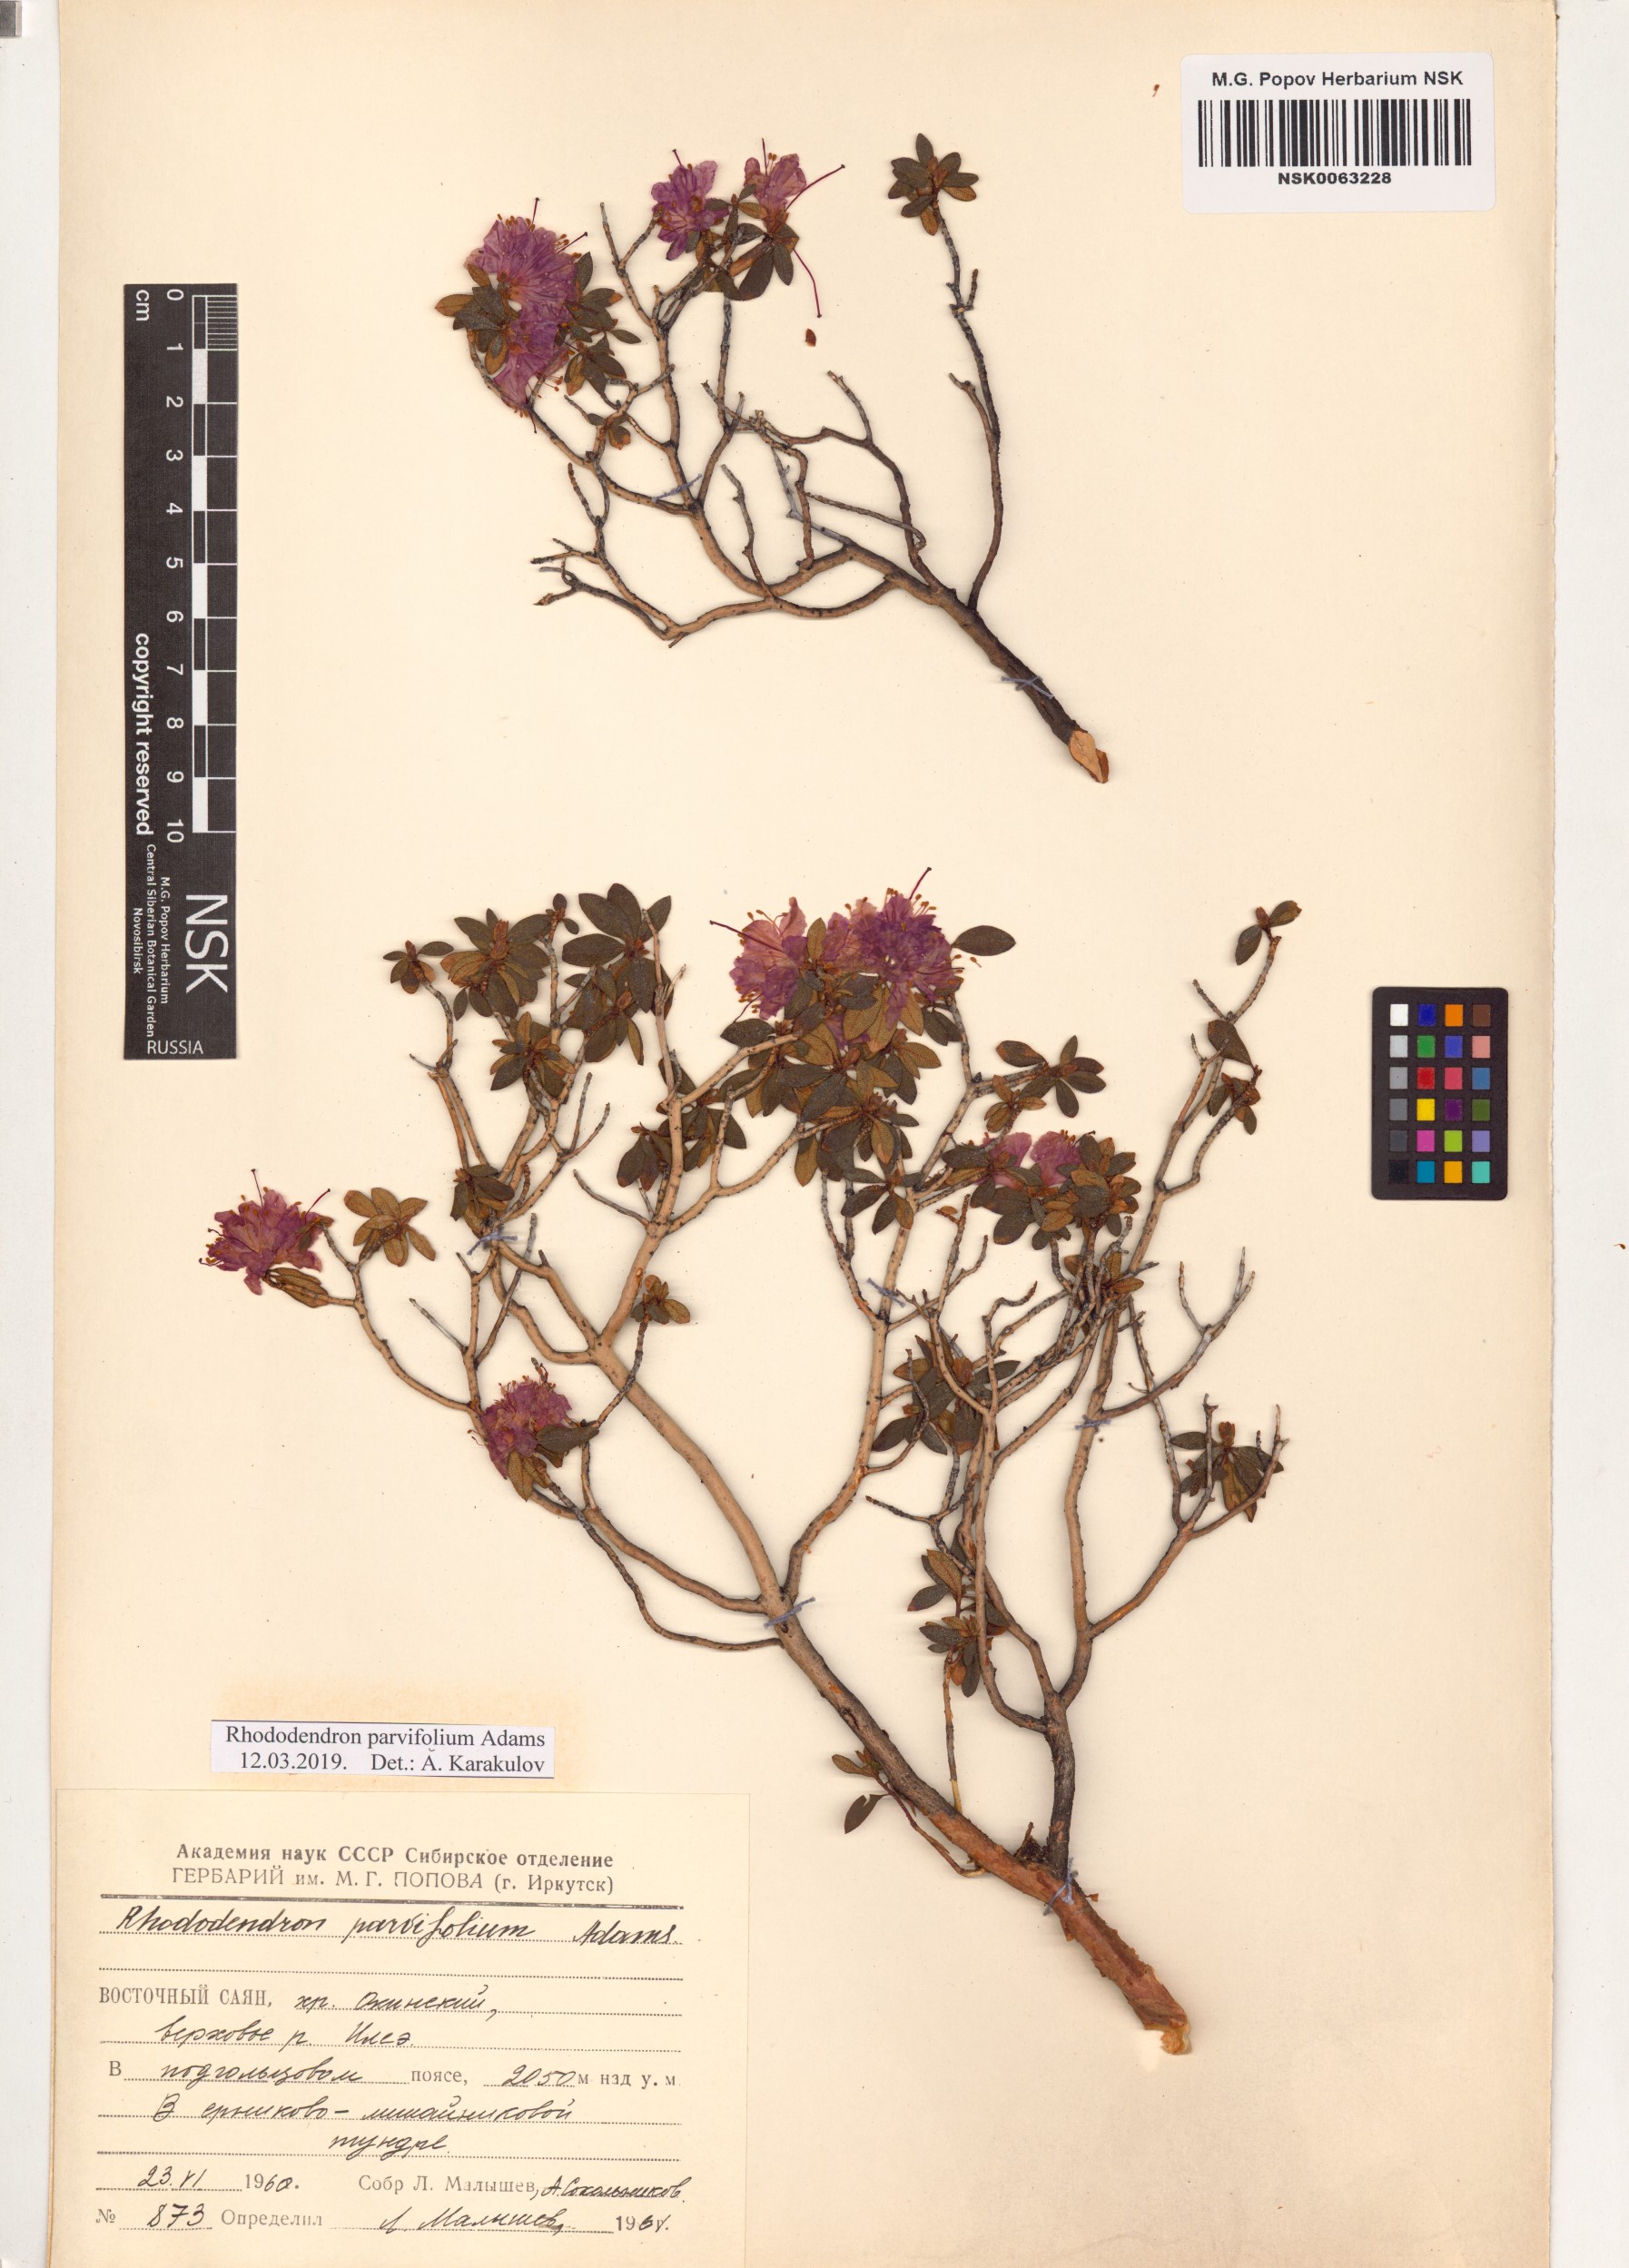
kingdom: Plantae
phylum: Tracheophyta
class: Magnoliopsida
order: Ericales
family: Ericaceae
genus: Rhododendron
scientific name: Rhododendron parvifolium
